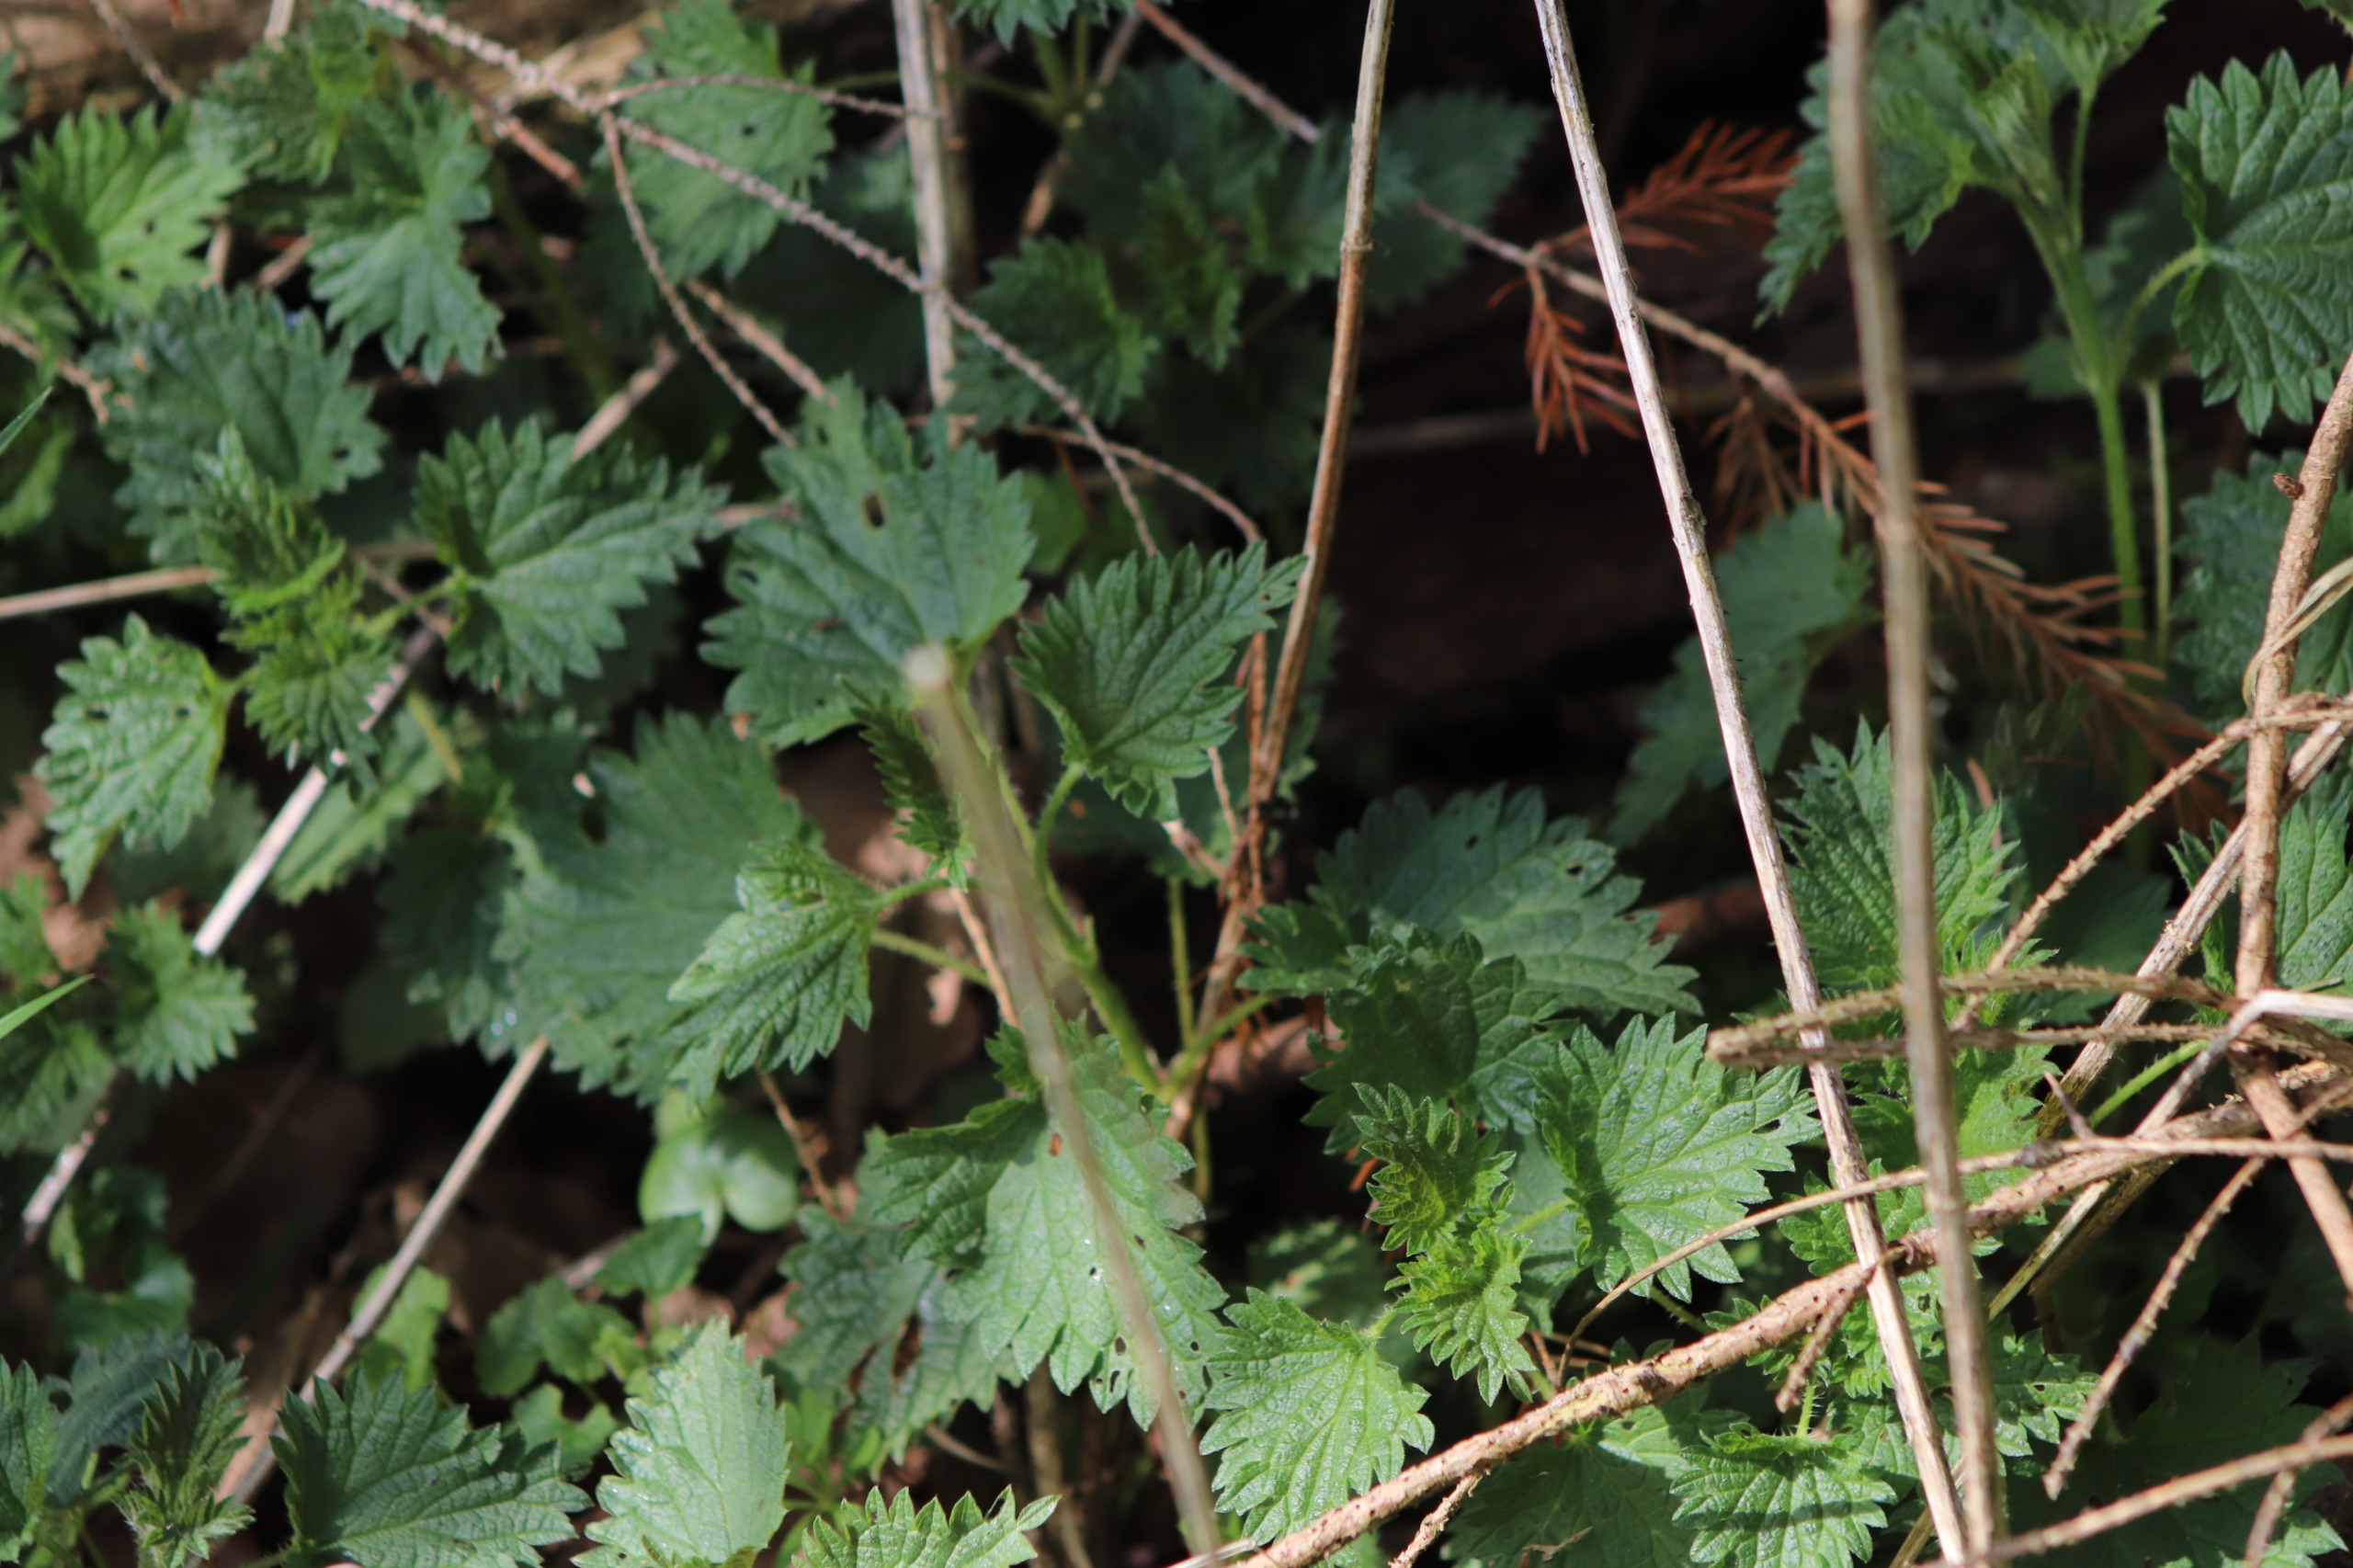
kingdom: Plantae
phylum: Tracheophyta
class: Magnoliopsida
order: Rosales
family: Urticaceae
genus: Urtica
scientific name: Urtica dioica
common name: Stor nælde
